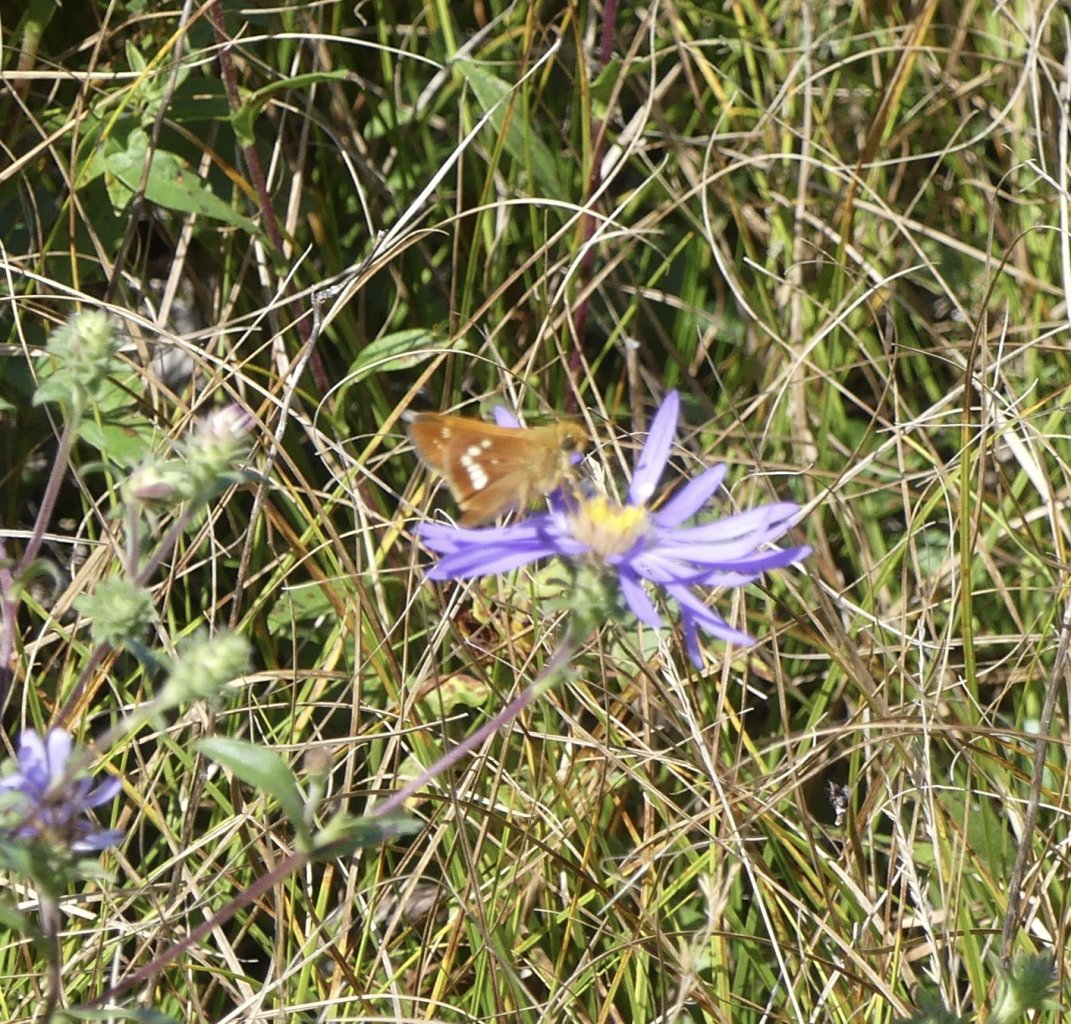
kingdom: Animalia
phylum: Arthropoda
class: Insecta
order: Lepidoptera
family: Hesperiidae
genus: Hesperia
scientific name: Hesperia leonardus
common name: Leonard's Skipper
